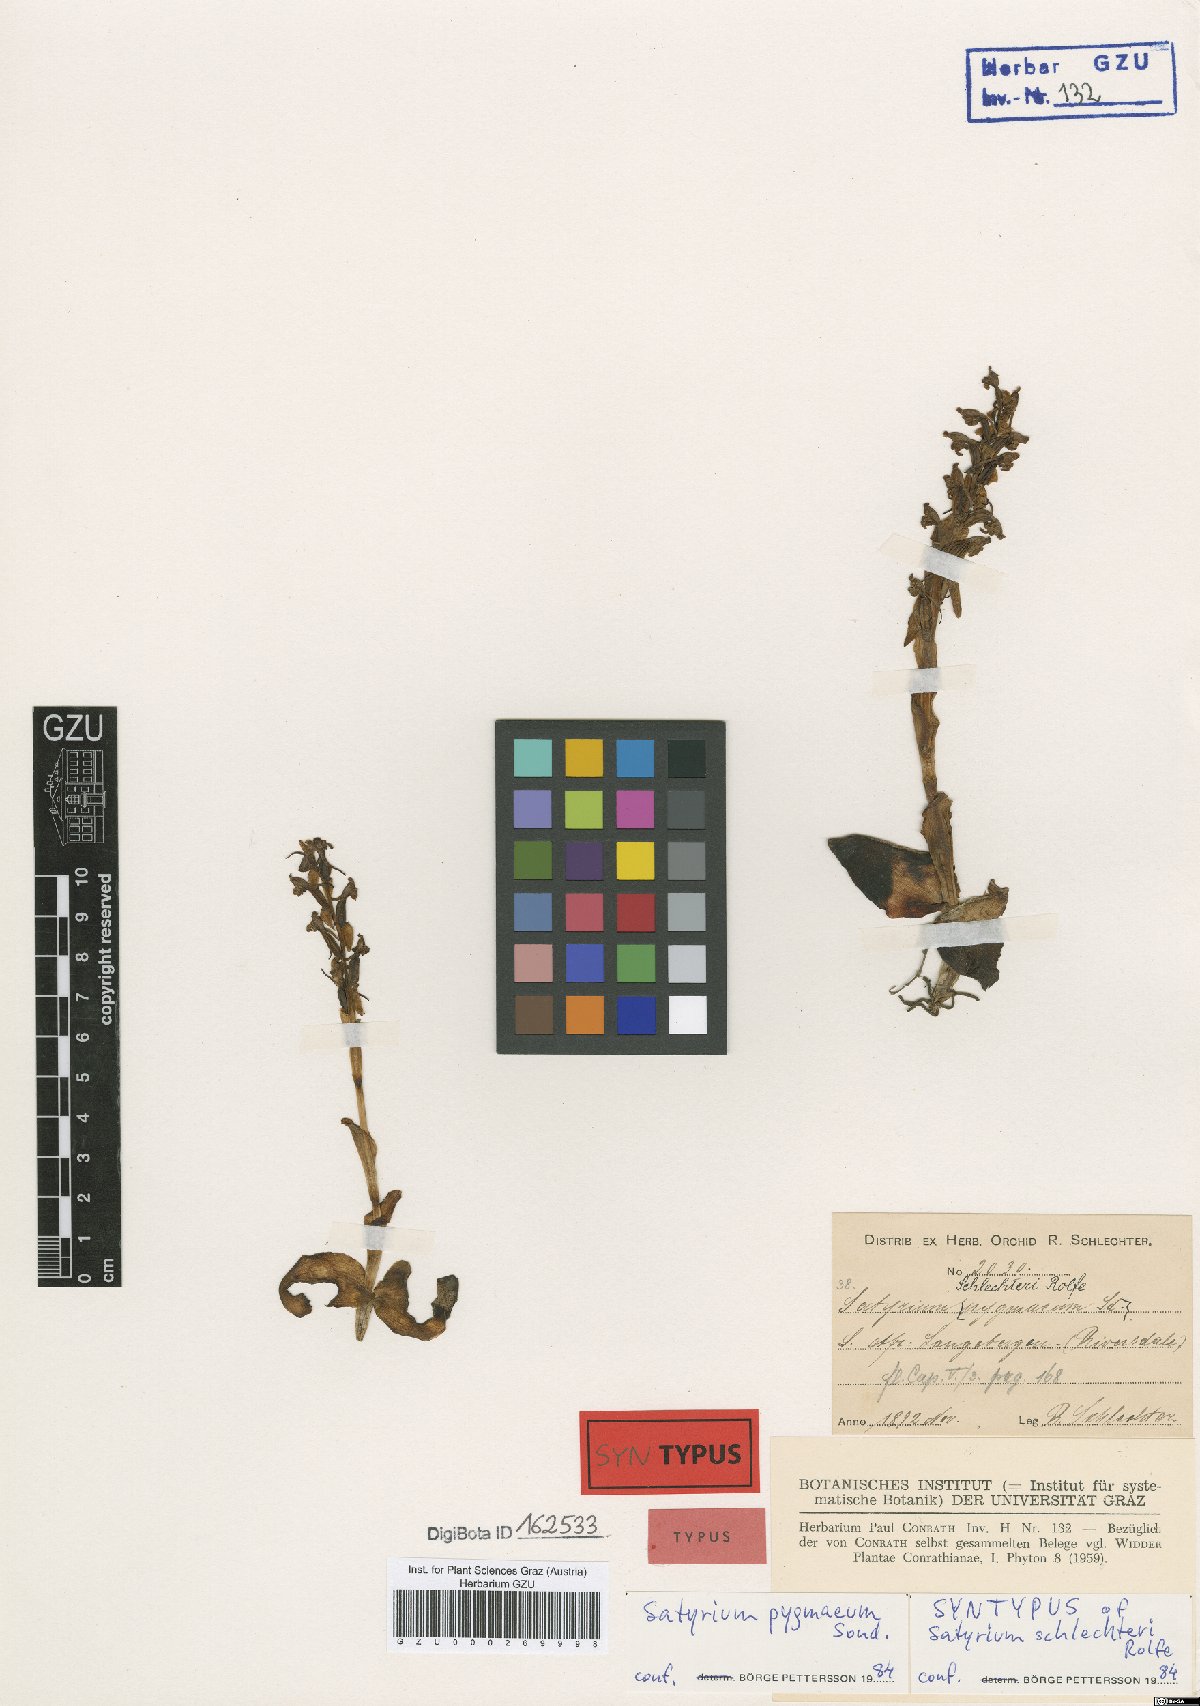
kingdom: Plantae
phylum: Tracheophyta
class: Liliopsida
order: Asparagales
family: Orchidaceae
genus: Satyrium
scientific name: Satyrium pygmaeum
